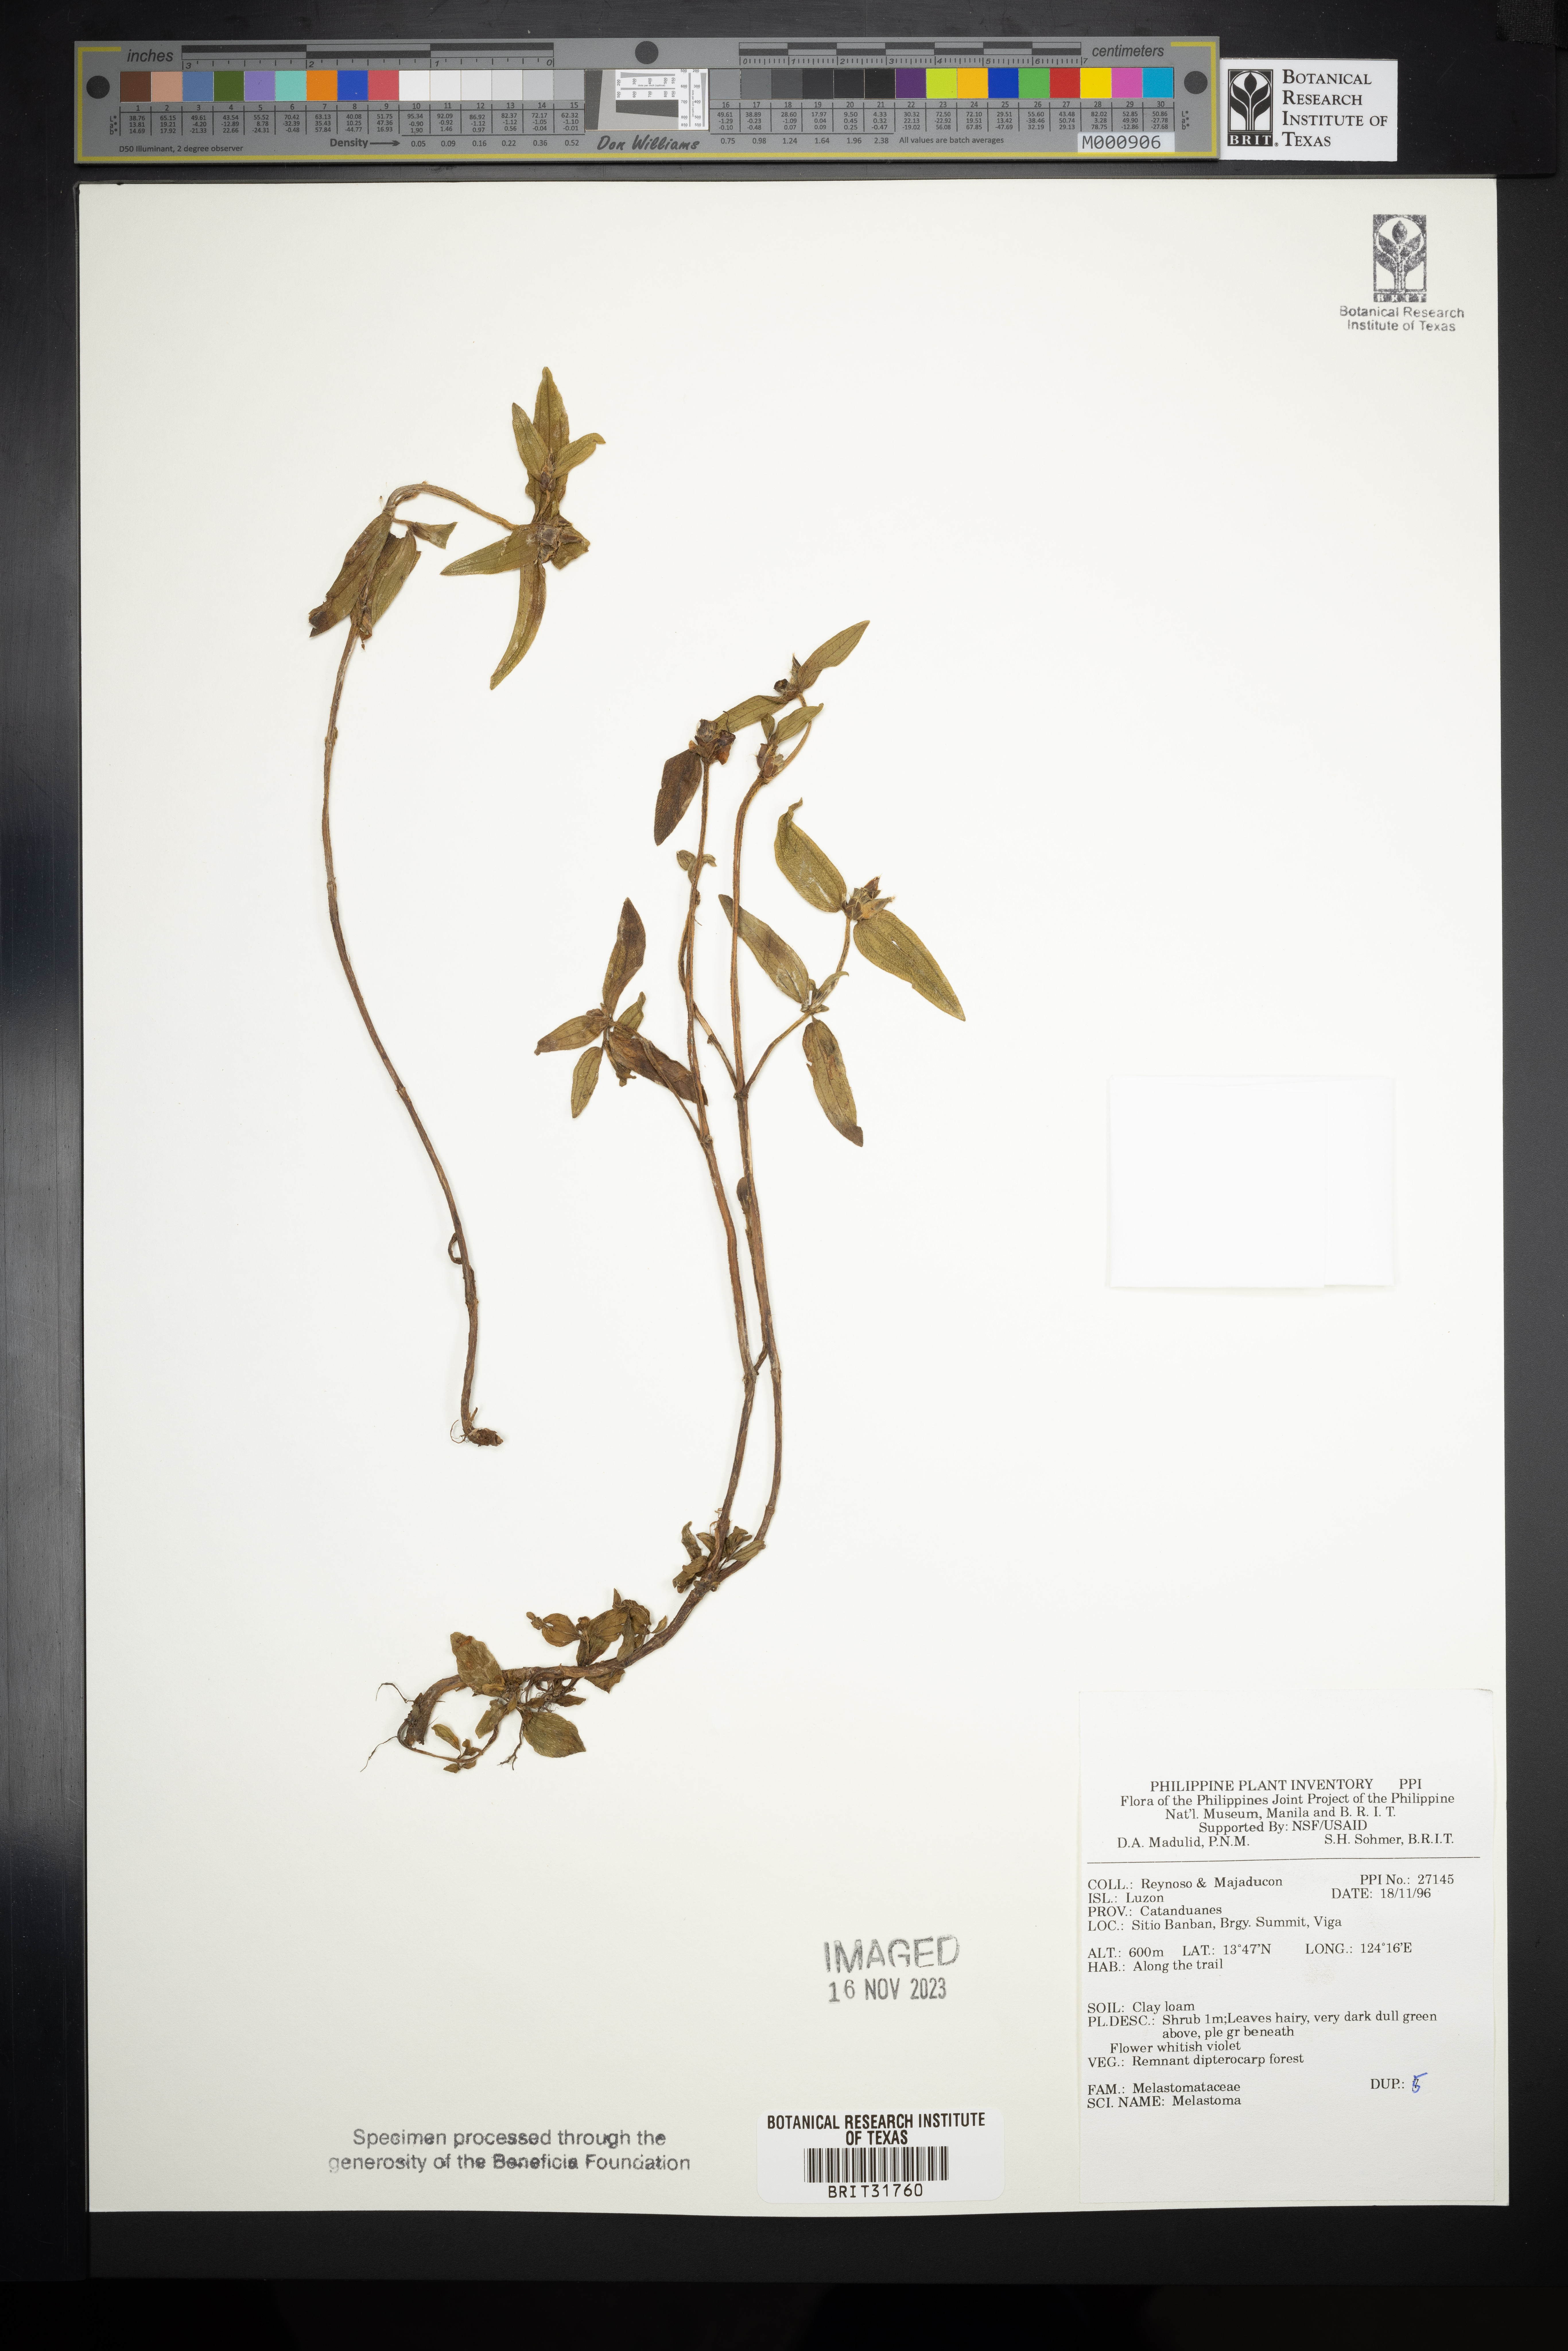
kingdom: Plantae
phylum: Tracheophyta
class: Magnoliopsida
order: Myrtales
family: Melastomataceae
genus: Melastoma
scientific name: Melastoma
